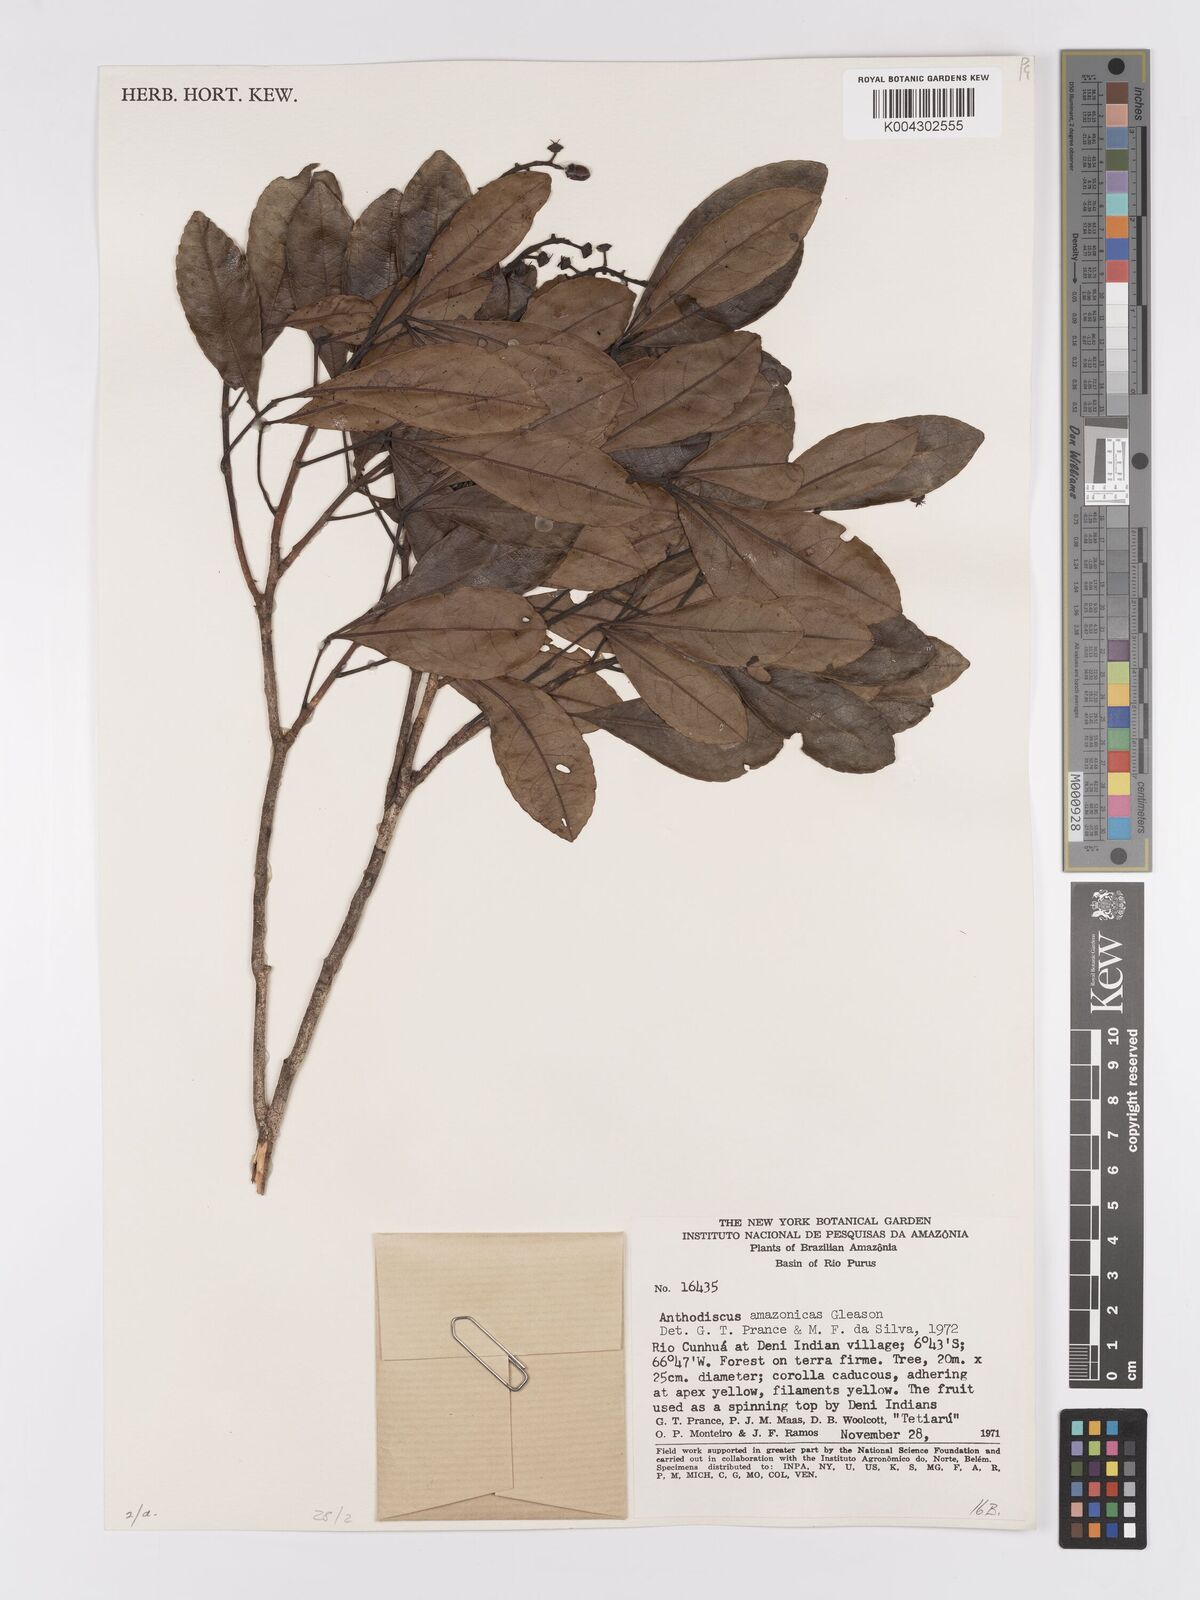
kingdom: Plantae
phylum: Tracheophyta
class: Magnoliopsida
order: Malpighiales
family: Caryocaraceae
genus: Anthodiscus
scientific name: Anthodiscus amazonicus
